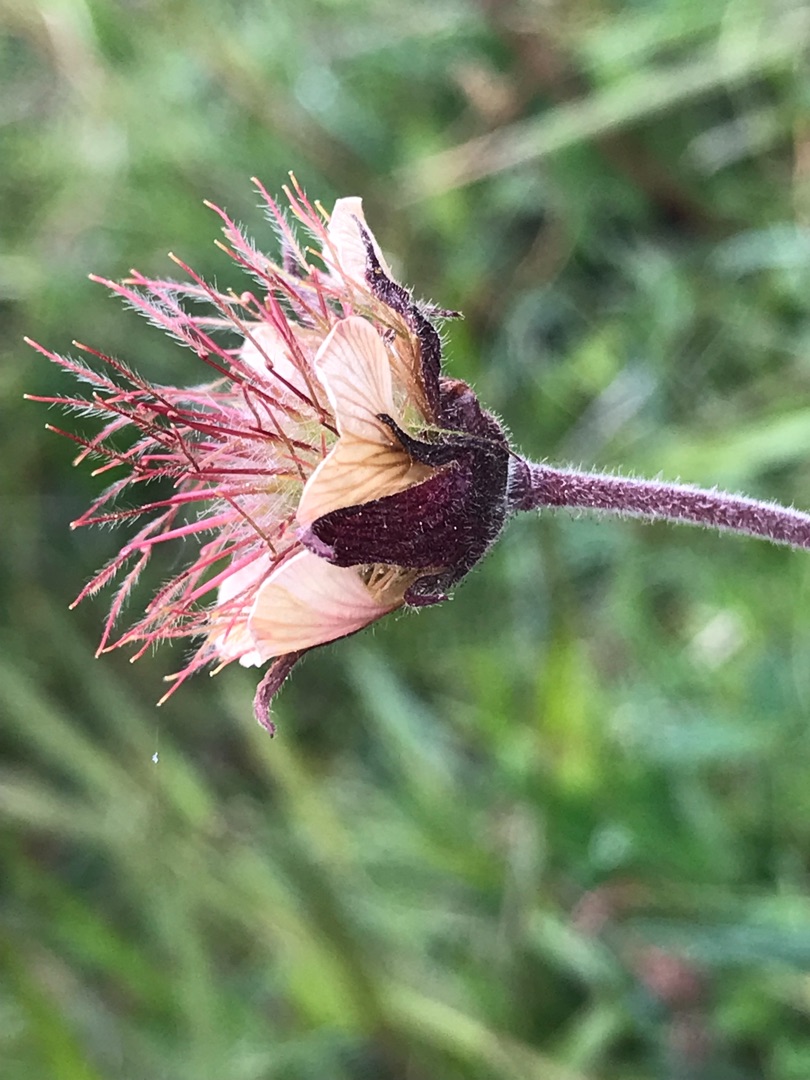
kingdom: Plantae
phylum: Tracheophyta
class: Magnoliopsida
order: Rosales
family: Rosaceae
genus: Geum
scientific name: Geum rivale
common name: Eng-nellikerod
